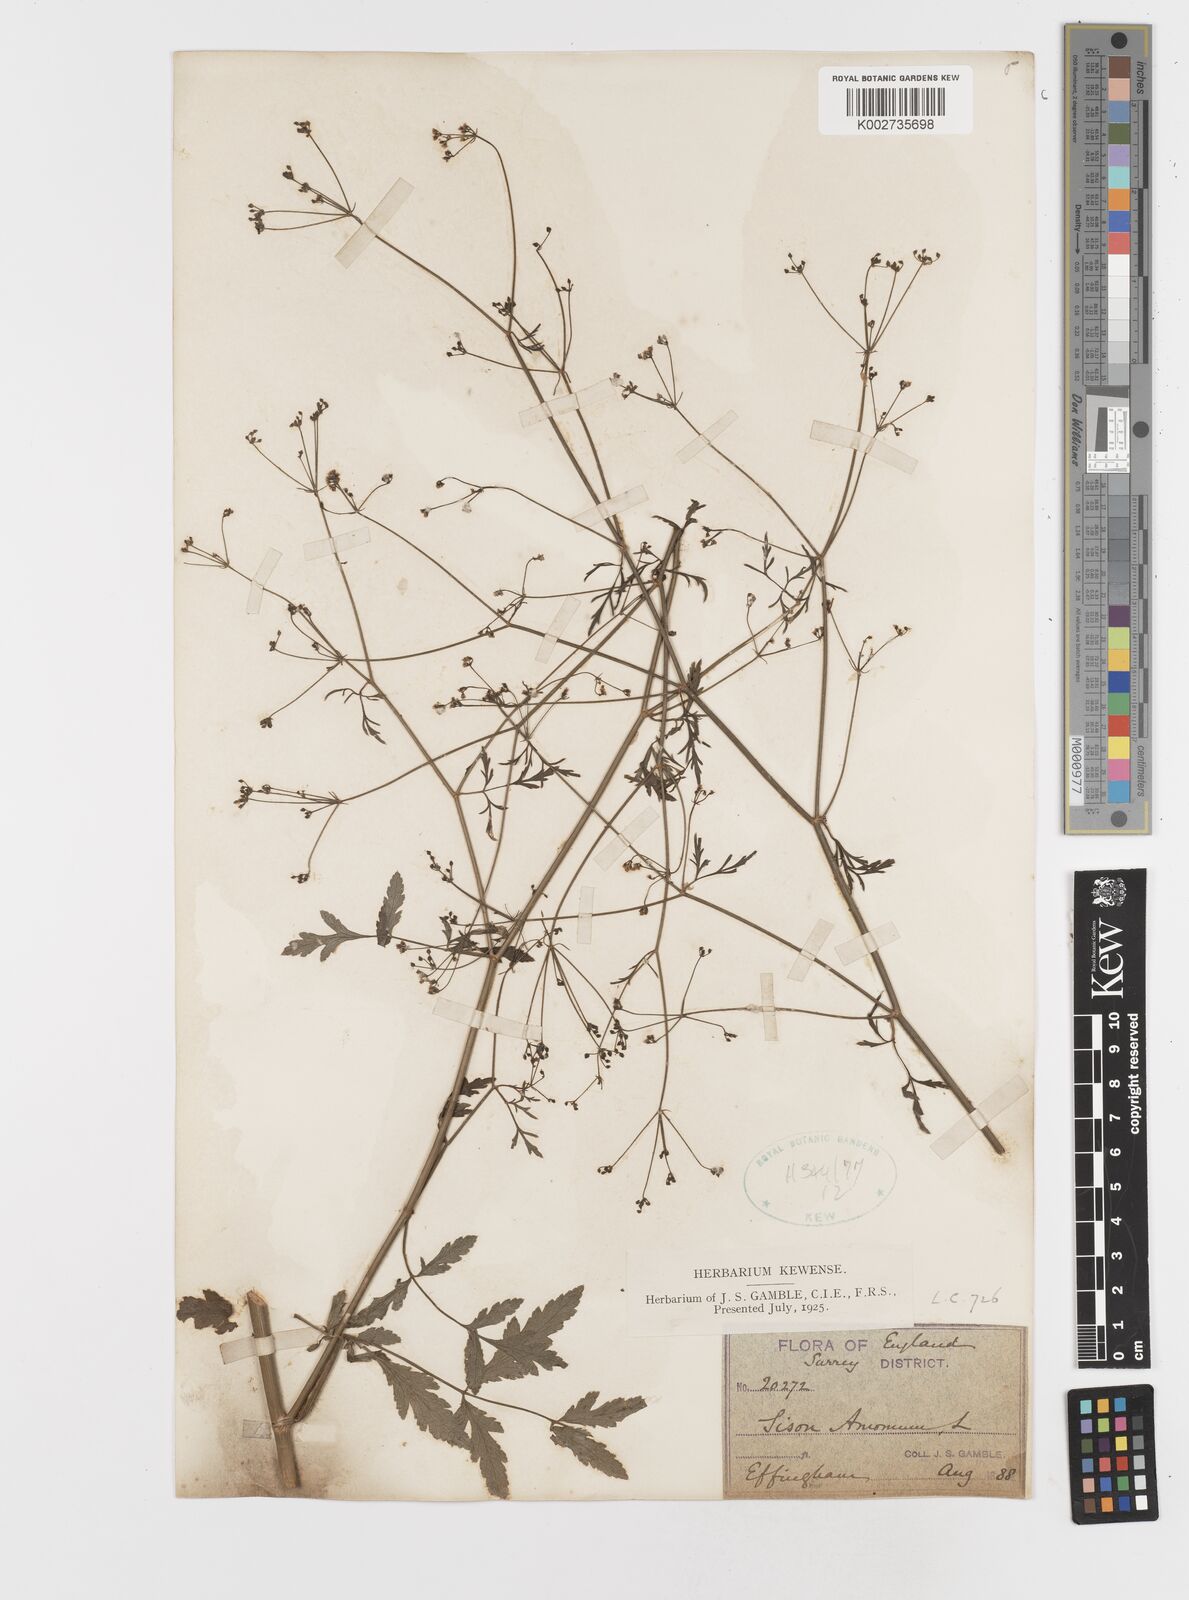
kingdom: Plantae
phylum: Tracheophyta
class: Magnoliopsida
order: Apiales
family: Apiaceae
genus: Sison
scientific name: Sison amomum
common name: Stone-parsley
